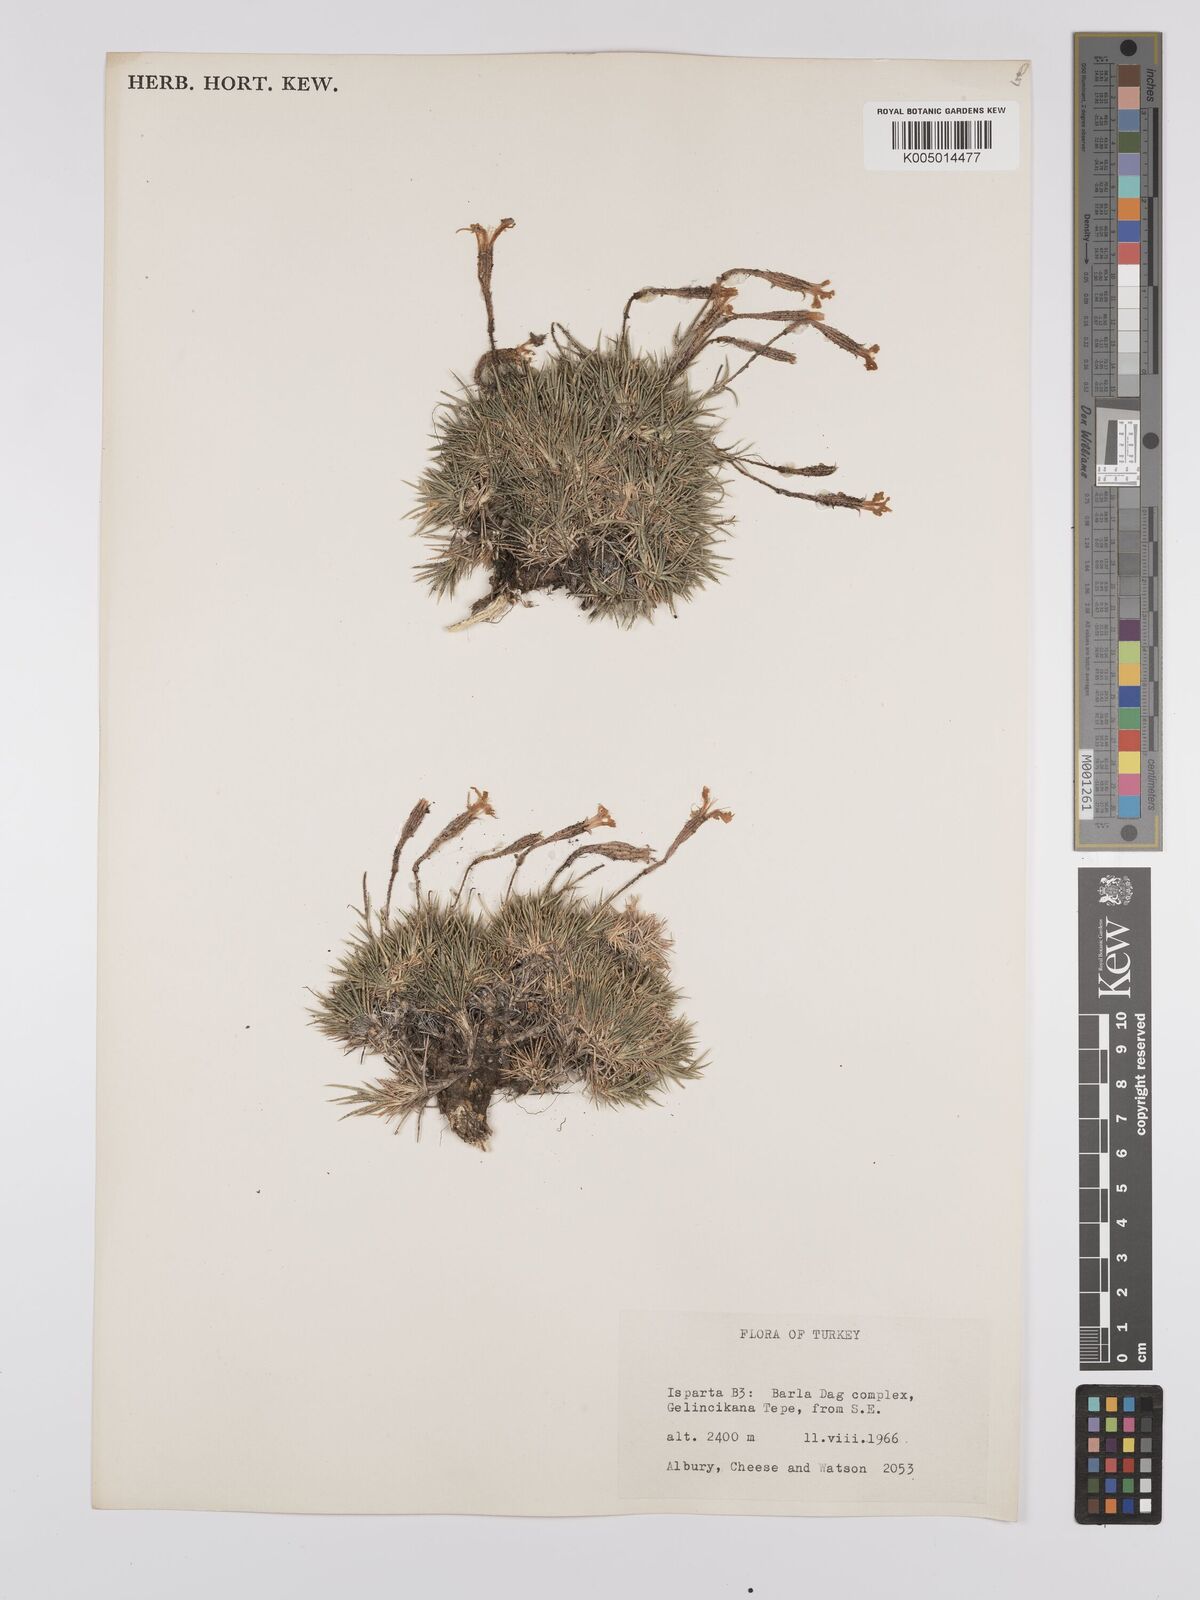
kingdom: Plantae
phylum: Tracheophyta
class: Magnoliopsida
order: Caryophyllales
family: Caryophyllaceae
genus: Silene
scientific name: Silene
